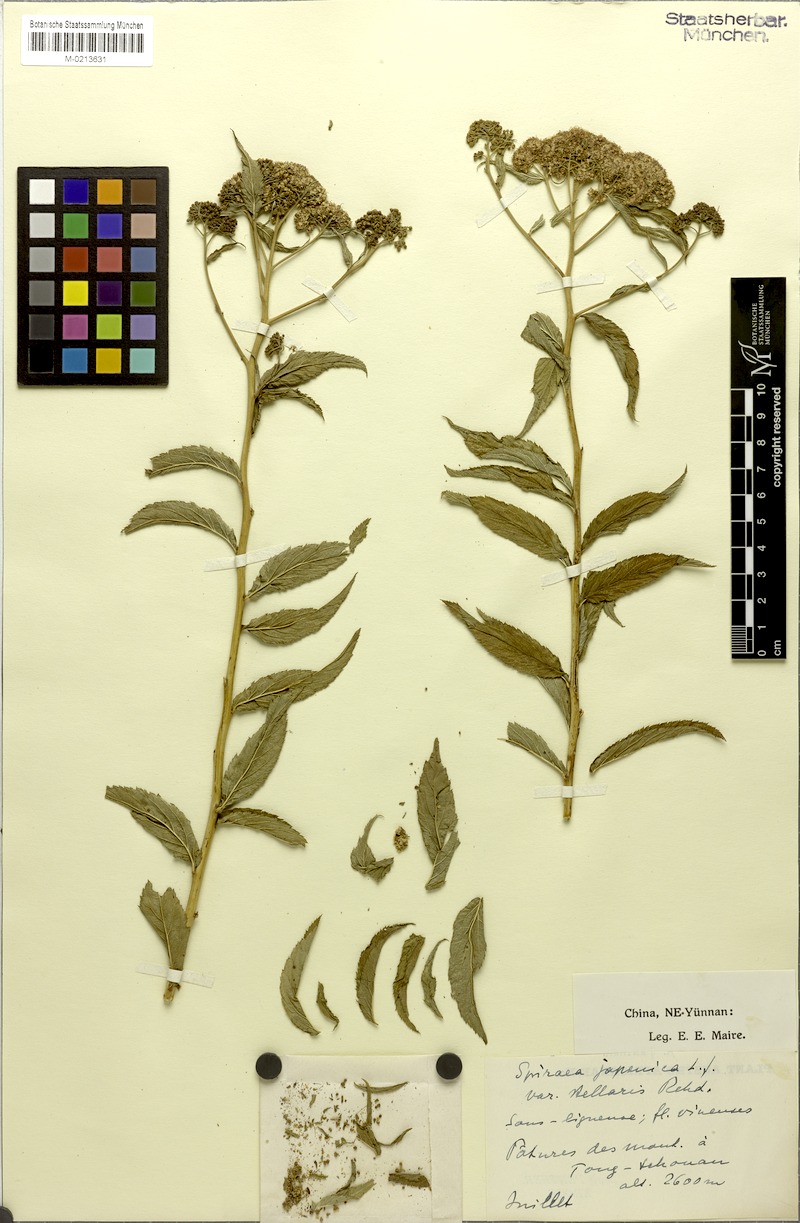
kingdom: Plantae
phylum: Tracheophyta
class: Magnoliopsida
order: Rosales
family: Rosaceae
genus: Spiraea
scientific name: Spiraea japonica
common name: Japanese spiraea
